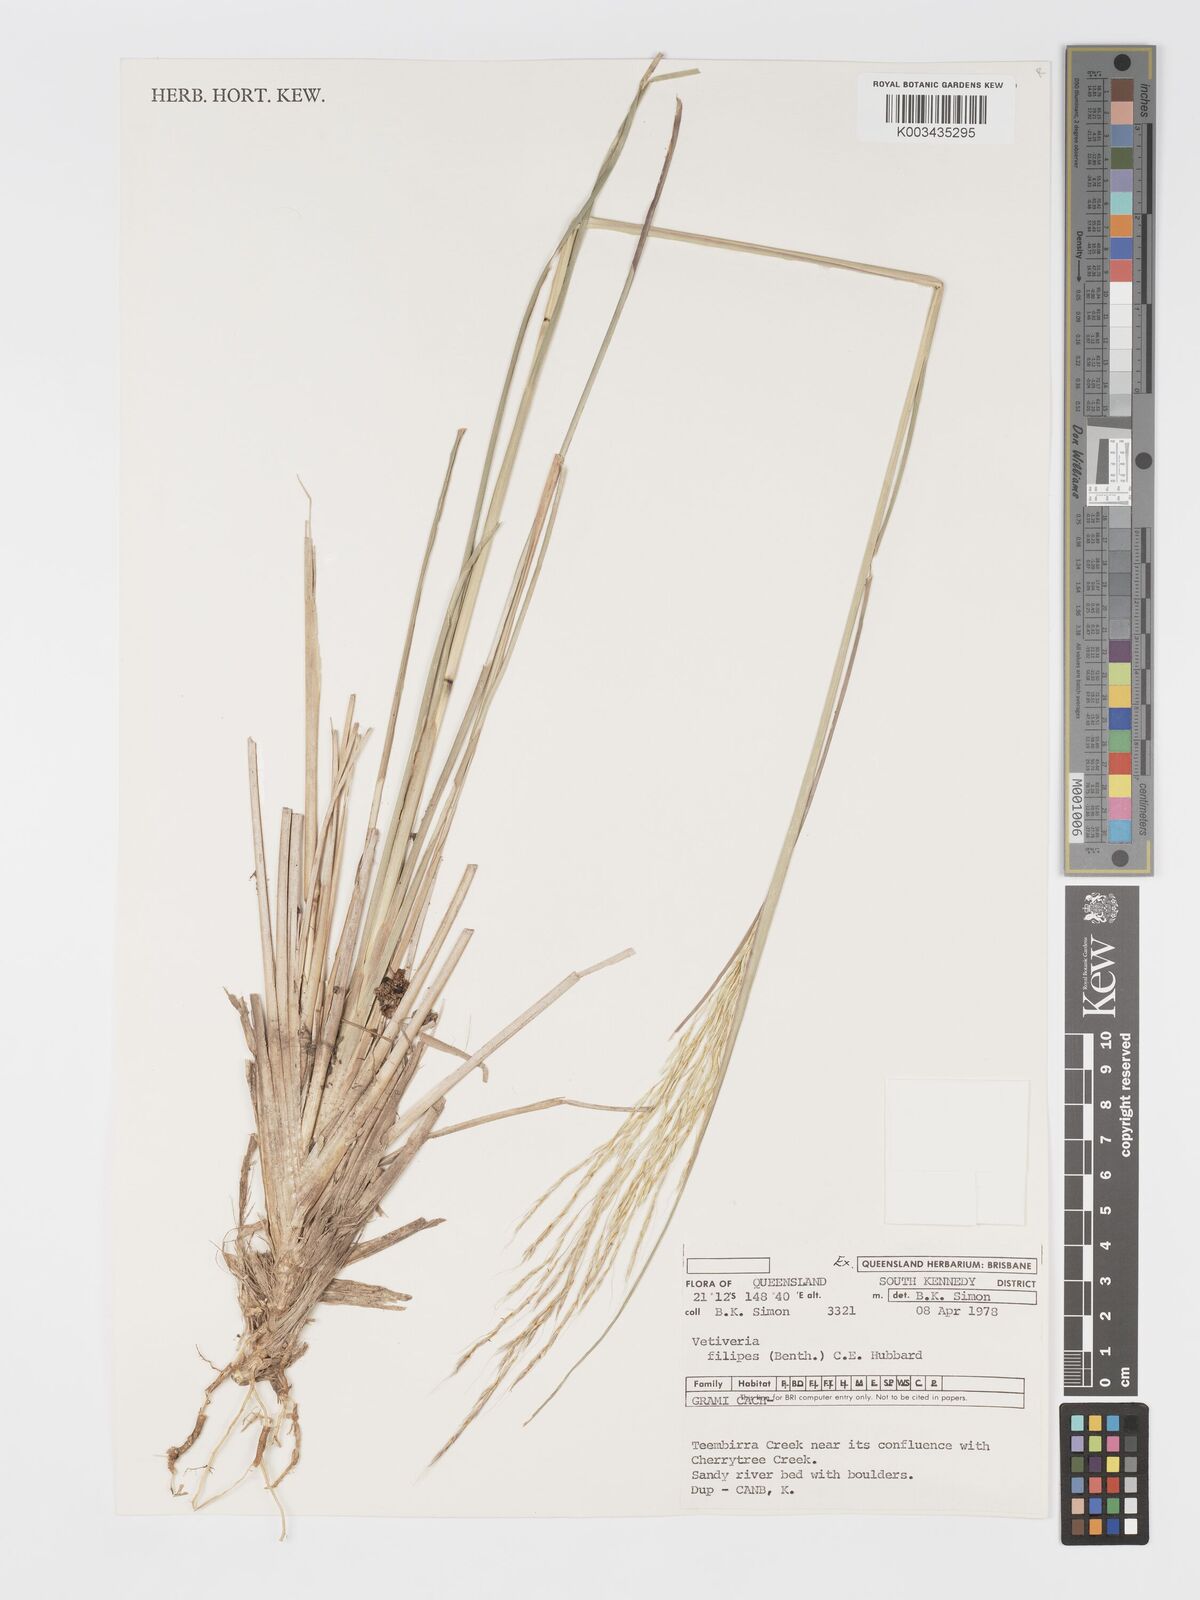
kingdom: Plantae
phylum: Tracheophyta
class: Liliopsida
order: Poales
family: Poaceae
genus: Chrysopogon
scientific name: Chrysopogon filipes
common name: Australian vetiver
